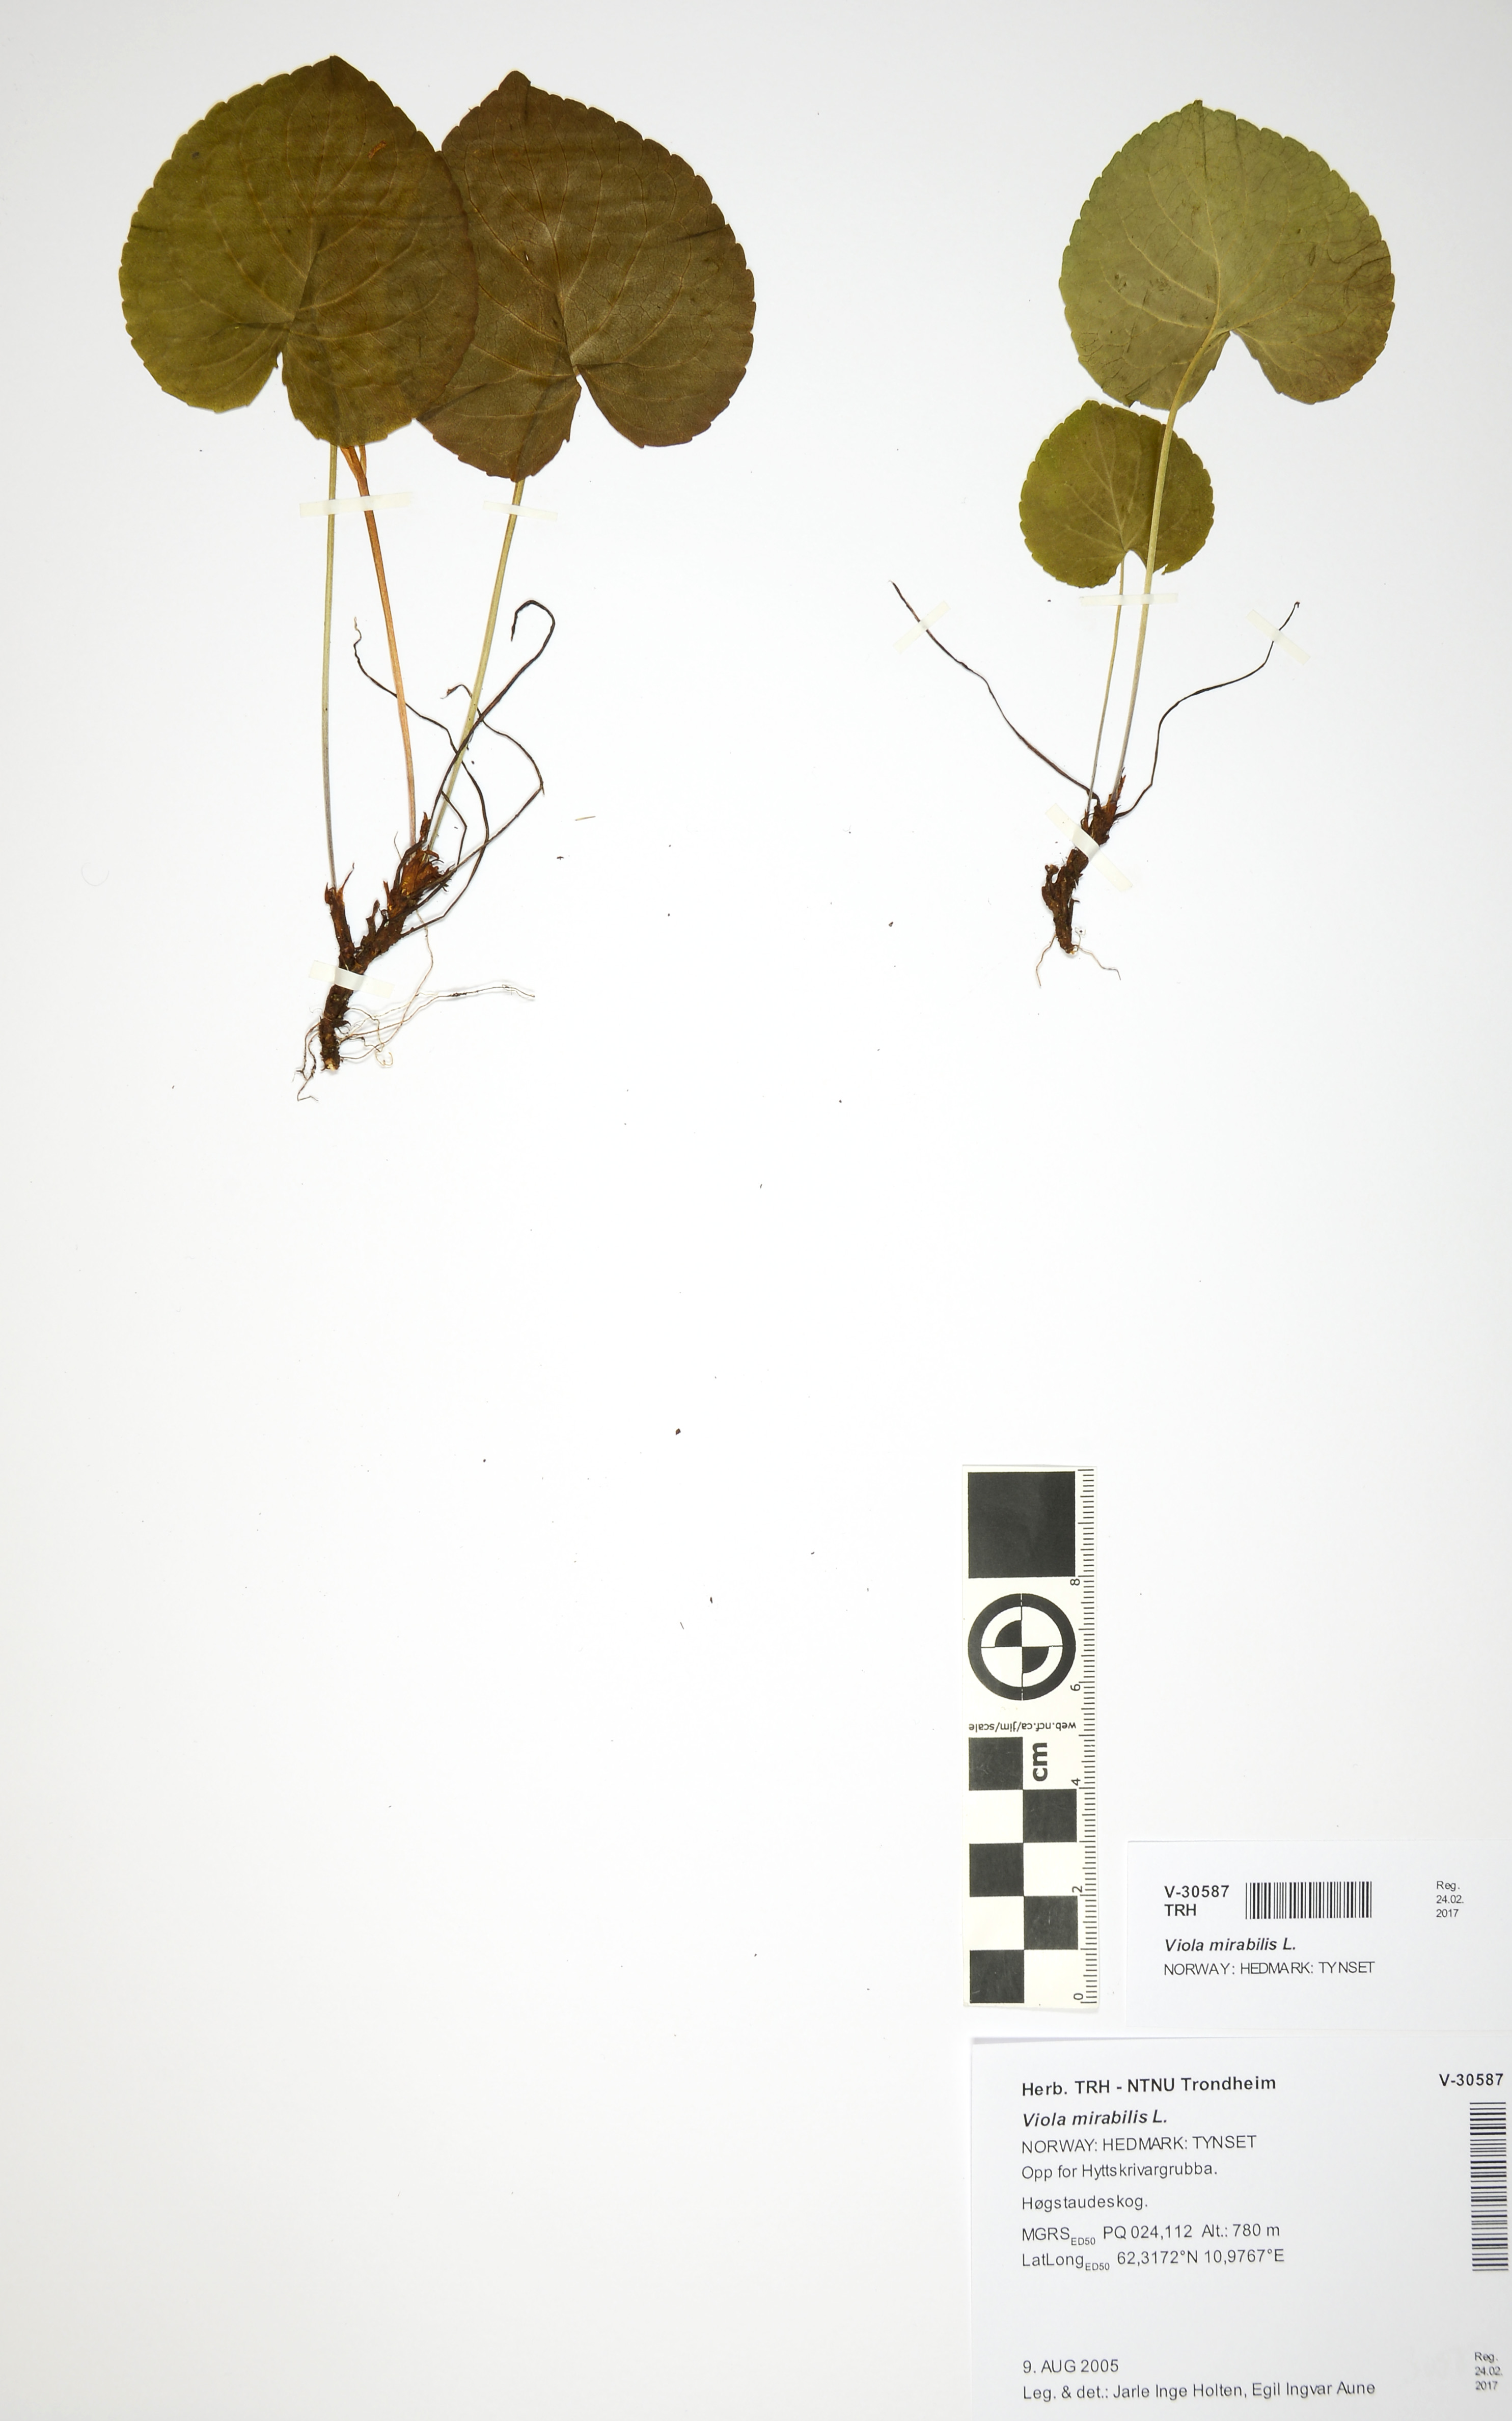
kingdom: Plantae
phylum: Tracheophyta
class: Magnoliopsida
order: Malpighiales
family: Violaceae
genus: Viola
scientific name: Viola mirabilis
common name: Wonder violet
